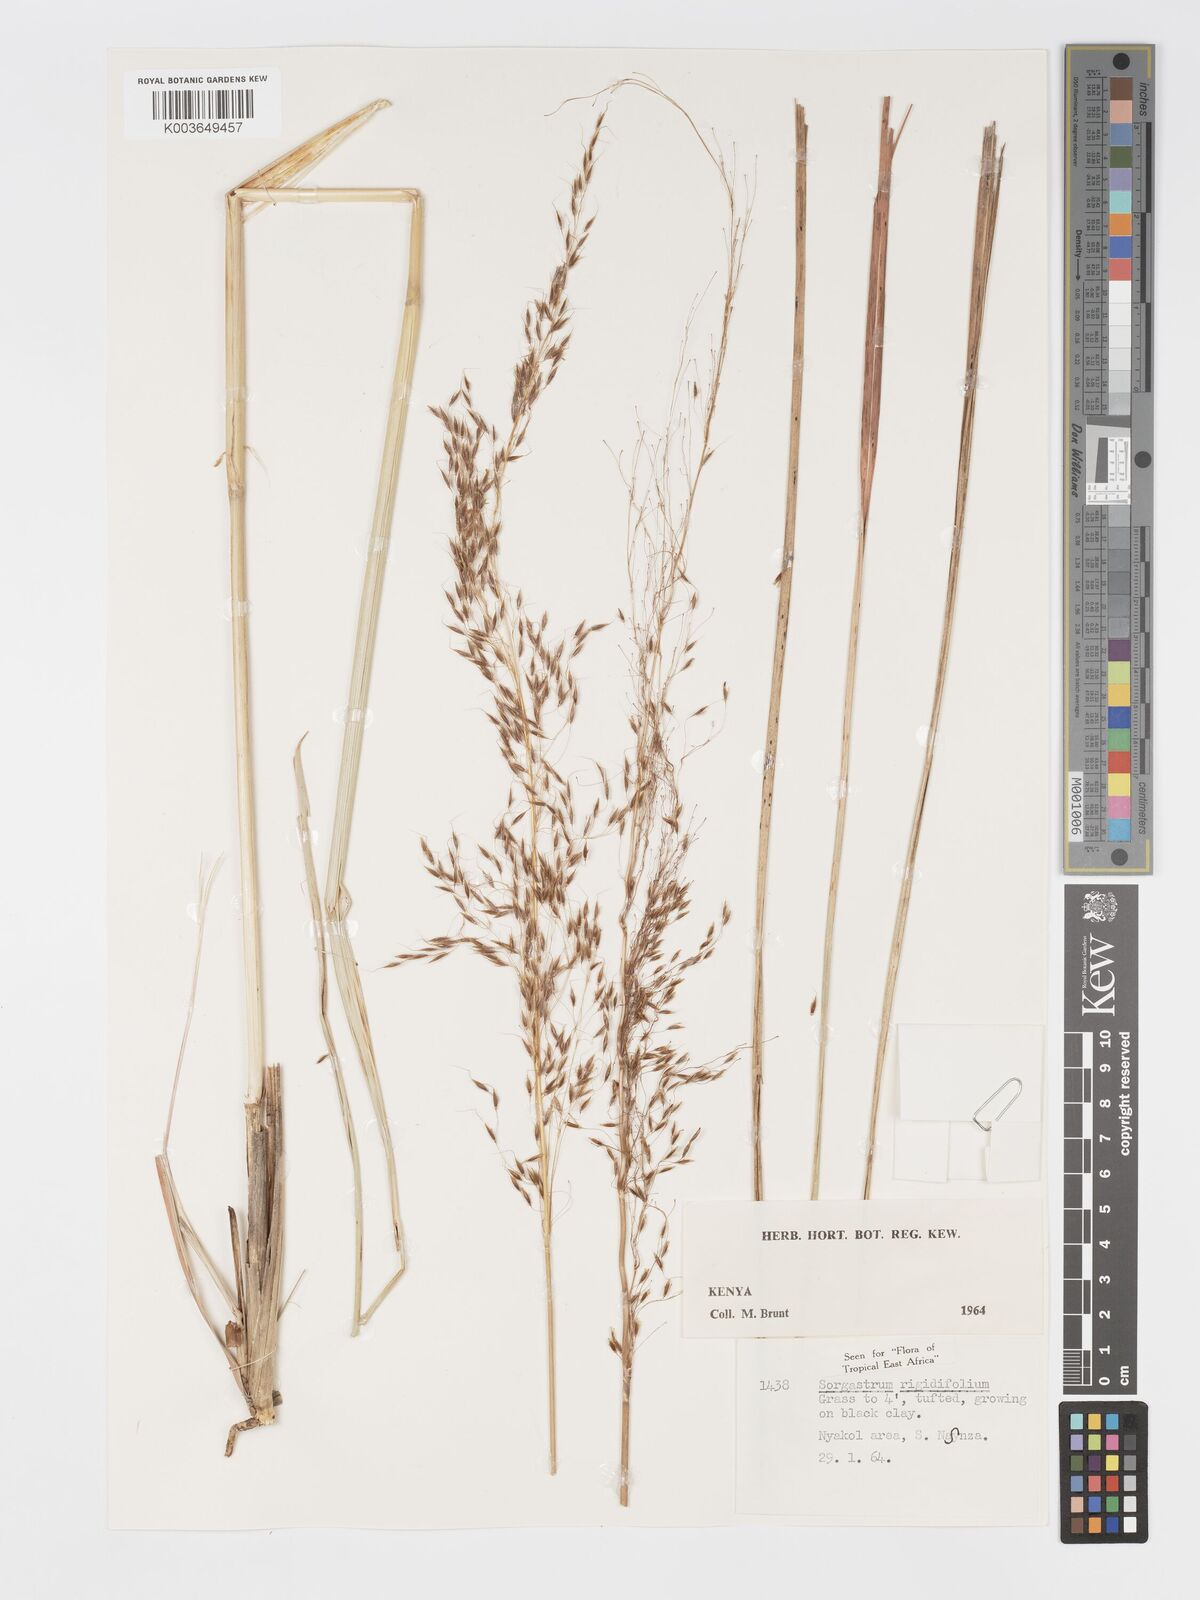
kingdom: Plantae
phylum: Tracheophyta
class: Liliopsida
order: Poales
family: Poaceae
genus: Sorghastrum
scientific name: Sorghastrum stipoides
